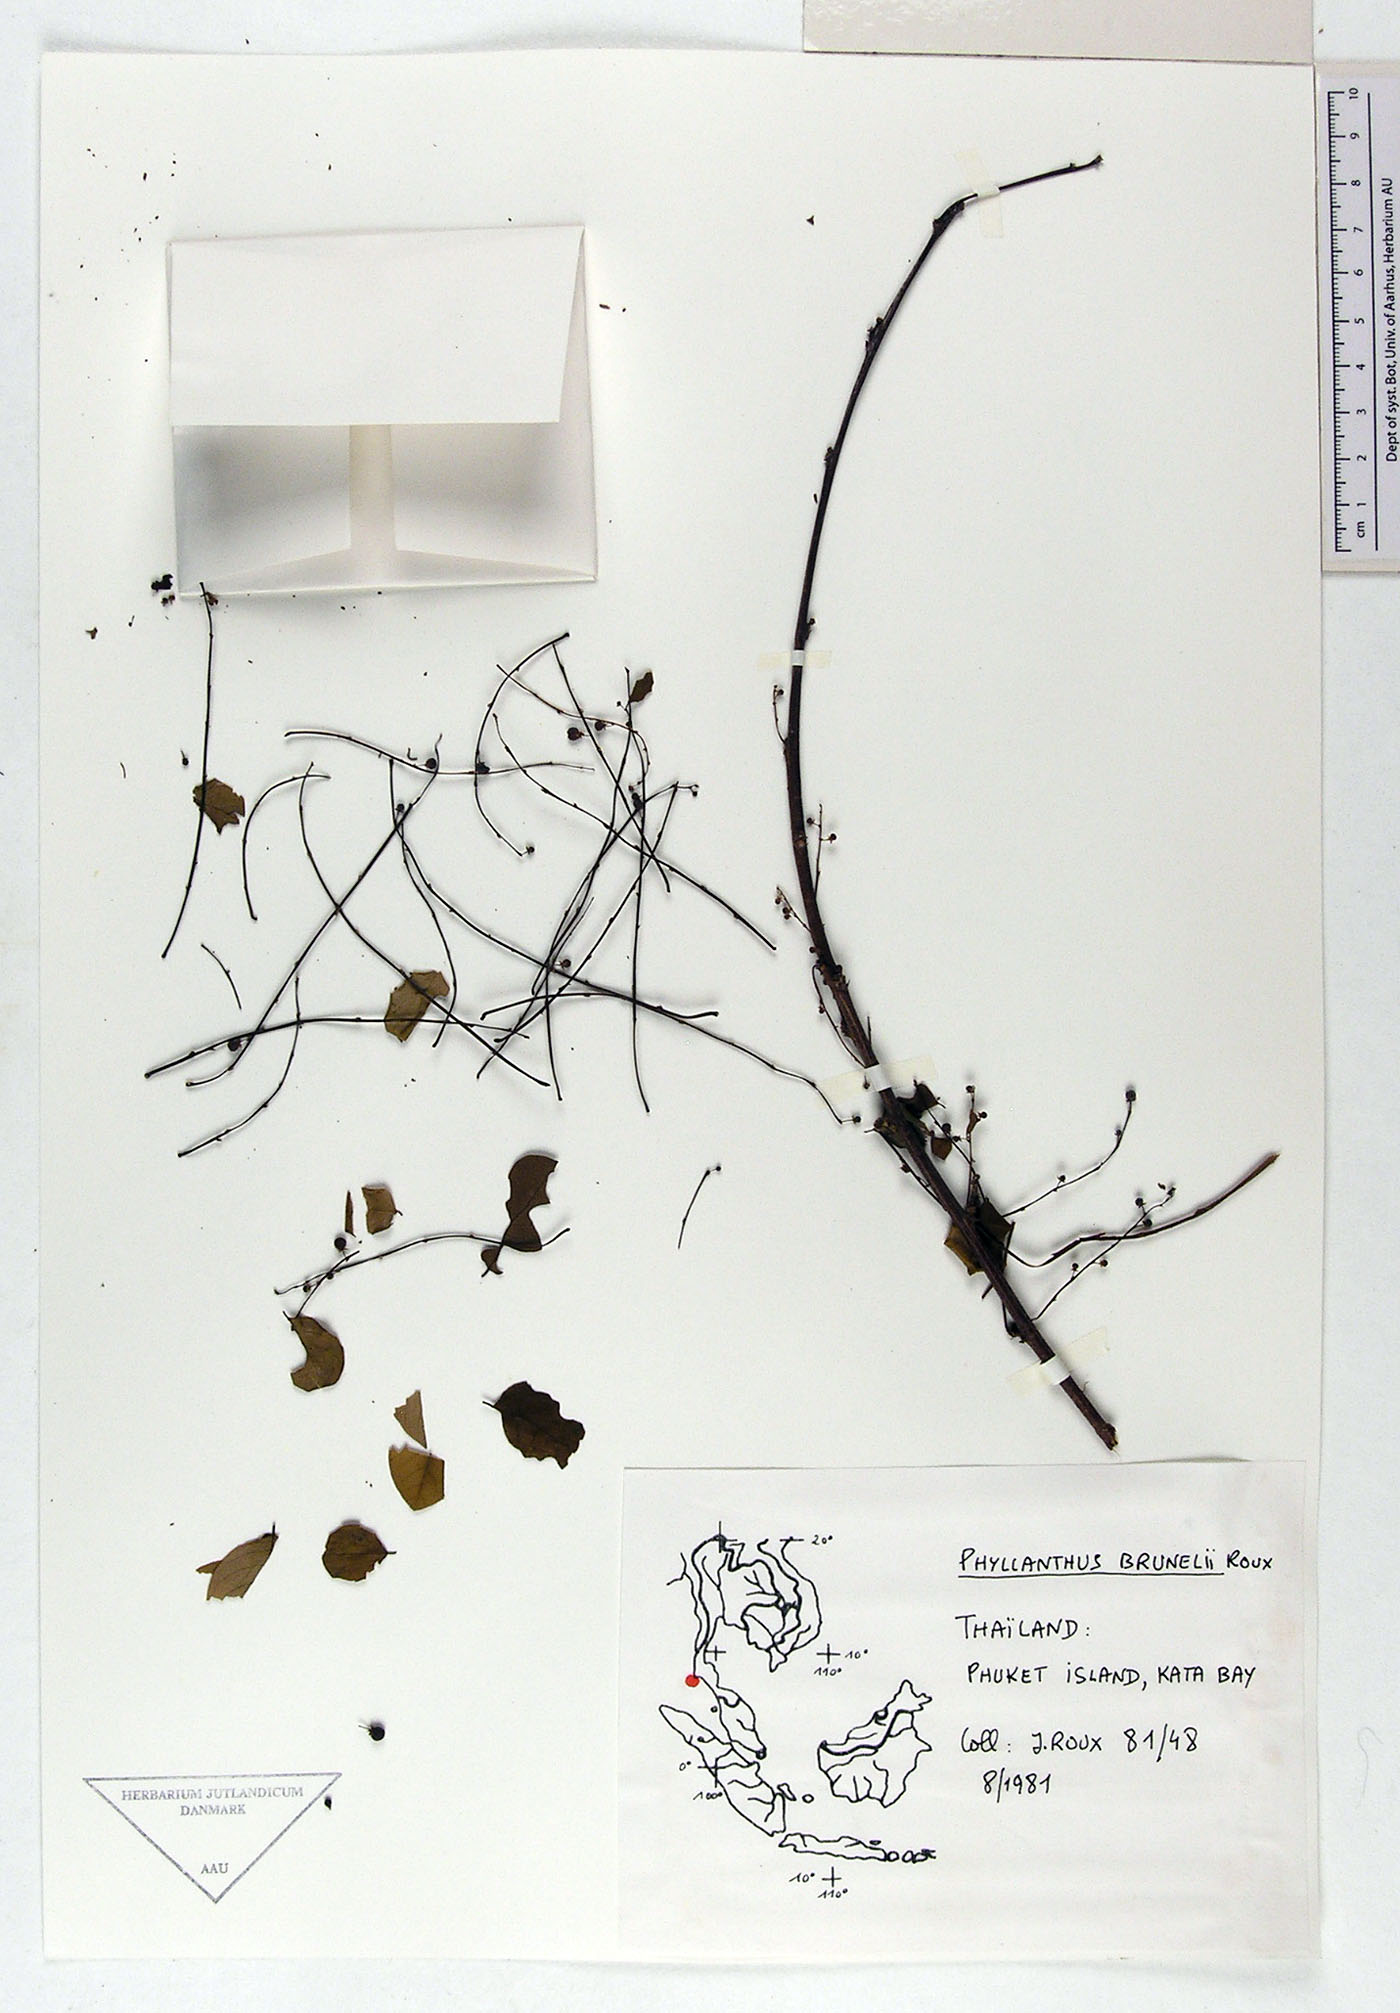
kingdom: Plantae
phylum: Tracheophyta
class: Magnoliopsida
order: Malpighiales
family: Phyllanthaceae
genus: Phyllanthus
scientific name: Phyllanthus microcarpus
